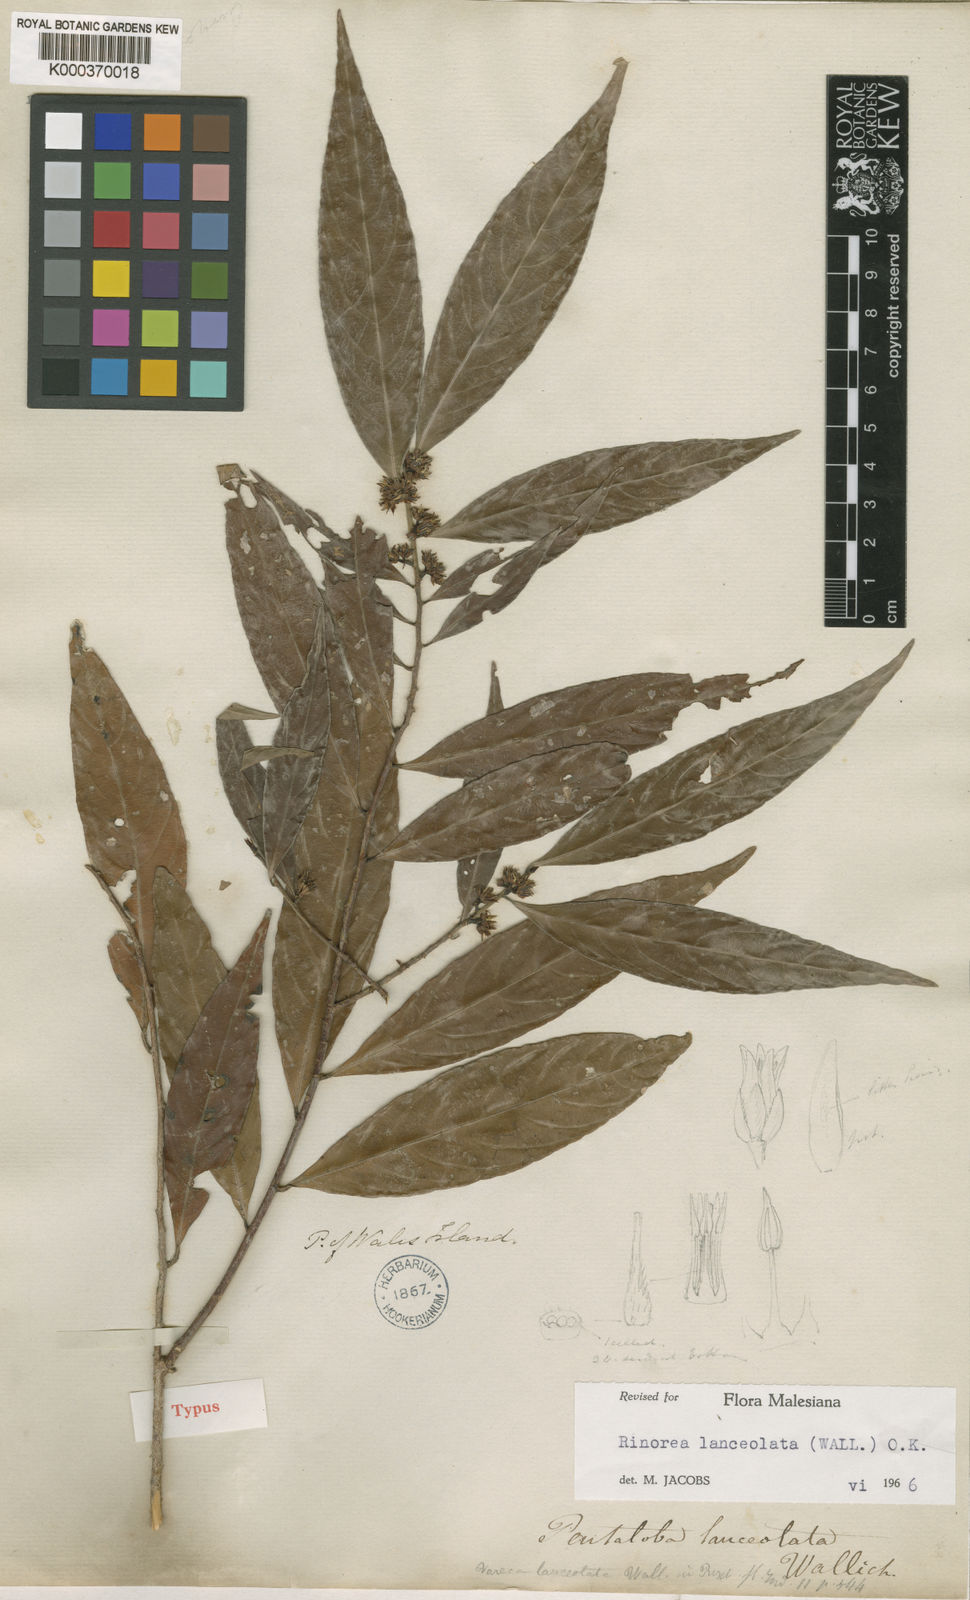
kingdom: Plantae
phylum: Tracheophyta
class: Magnoliopsida
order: Malpighiales
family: Violaceae
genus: Rinorea
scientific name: Rinorea lanceolata
